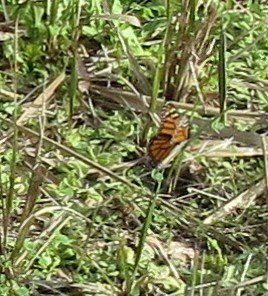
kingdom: Animalia
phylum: Arthropoda
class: Insecta
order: Lepidoptera
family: Nymphalidae
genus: Danaus
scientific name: Danaus plexippus
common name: Monarch
